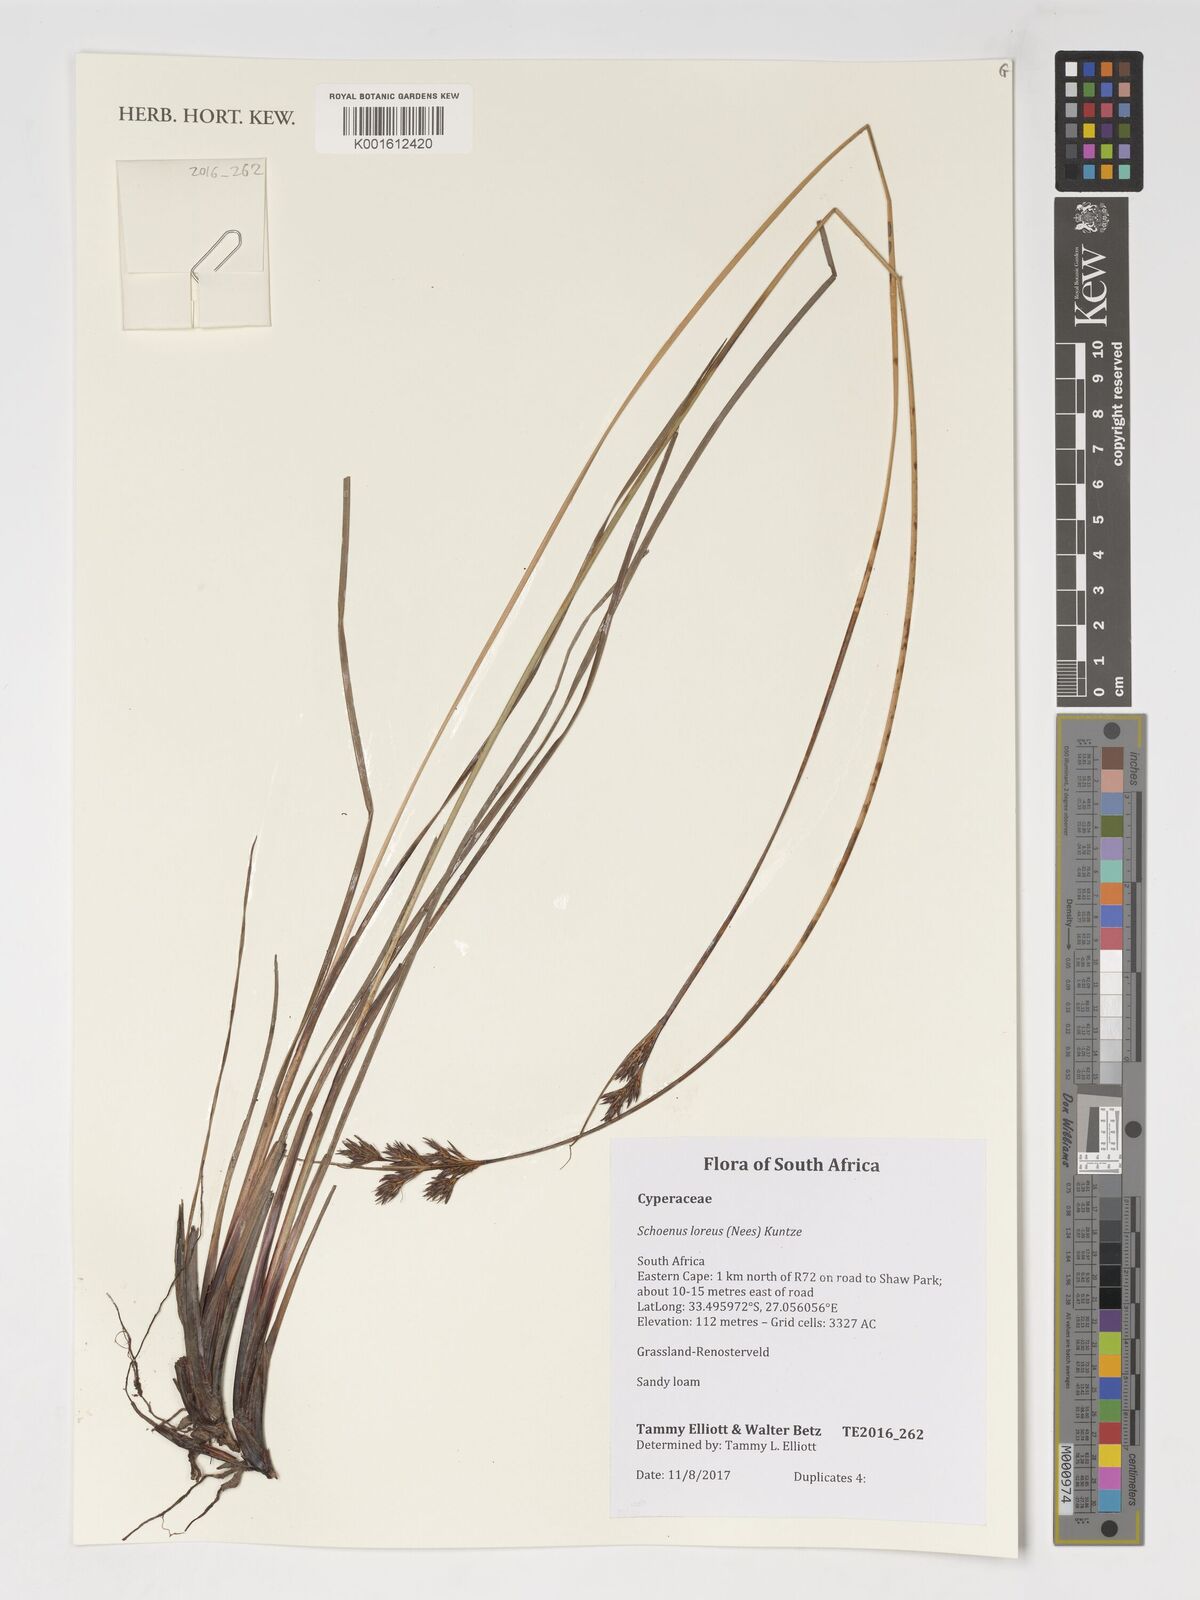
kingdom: Plantae
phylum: Tracheophyta
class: Liliopsida
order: Poales
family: Cyperaceae
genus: Schoenus
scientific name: Schoenus loreus
